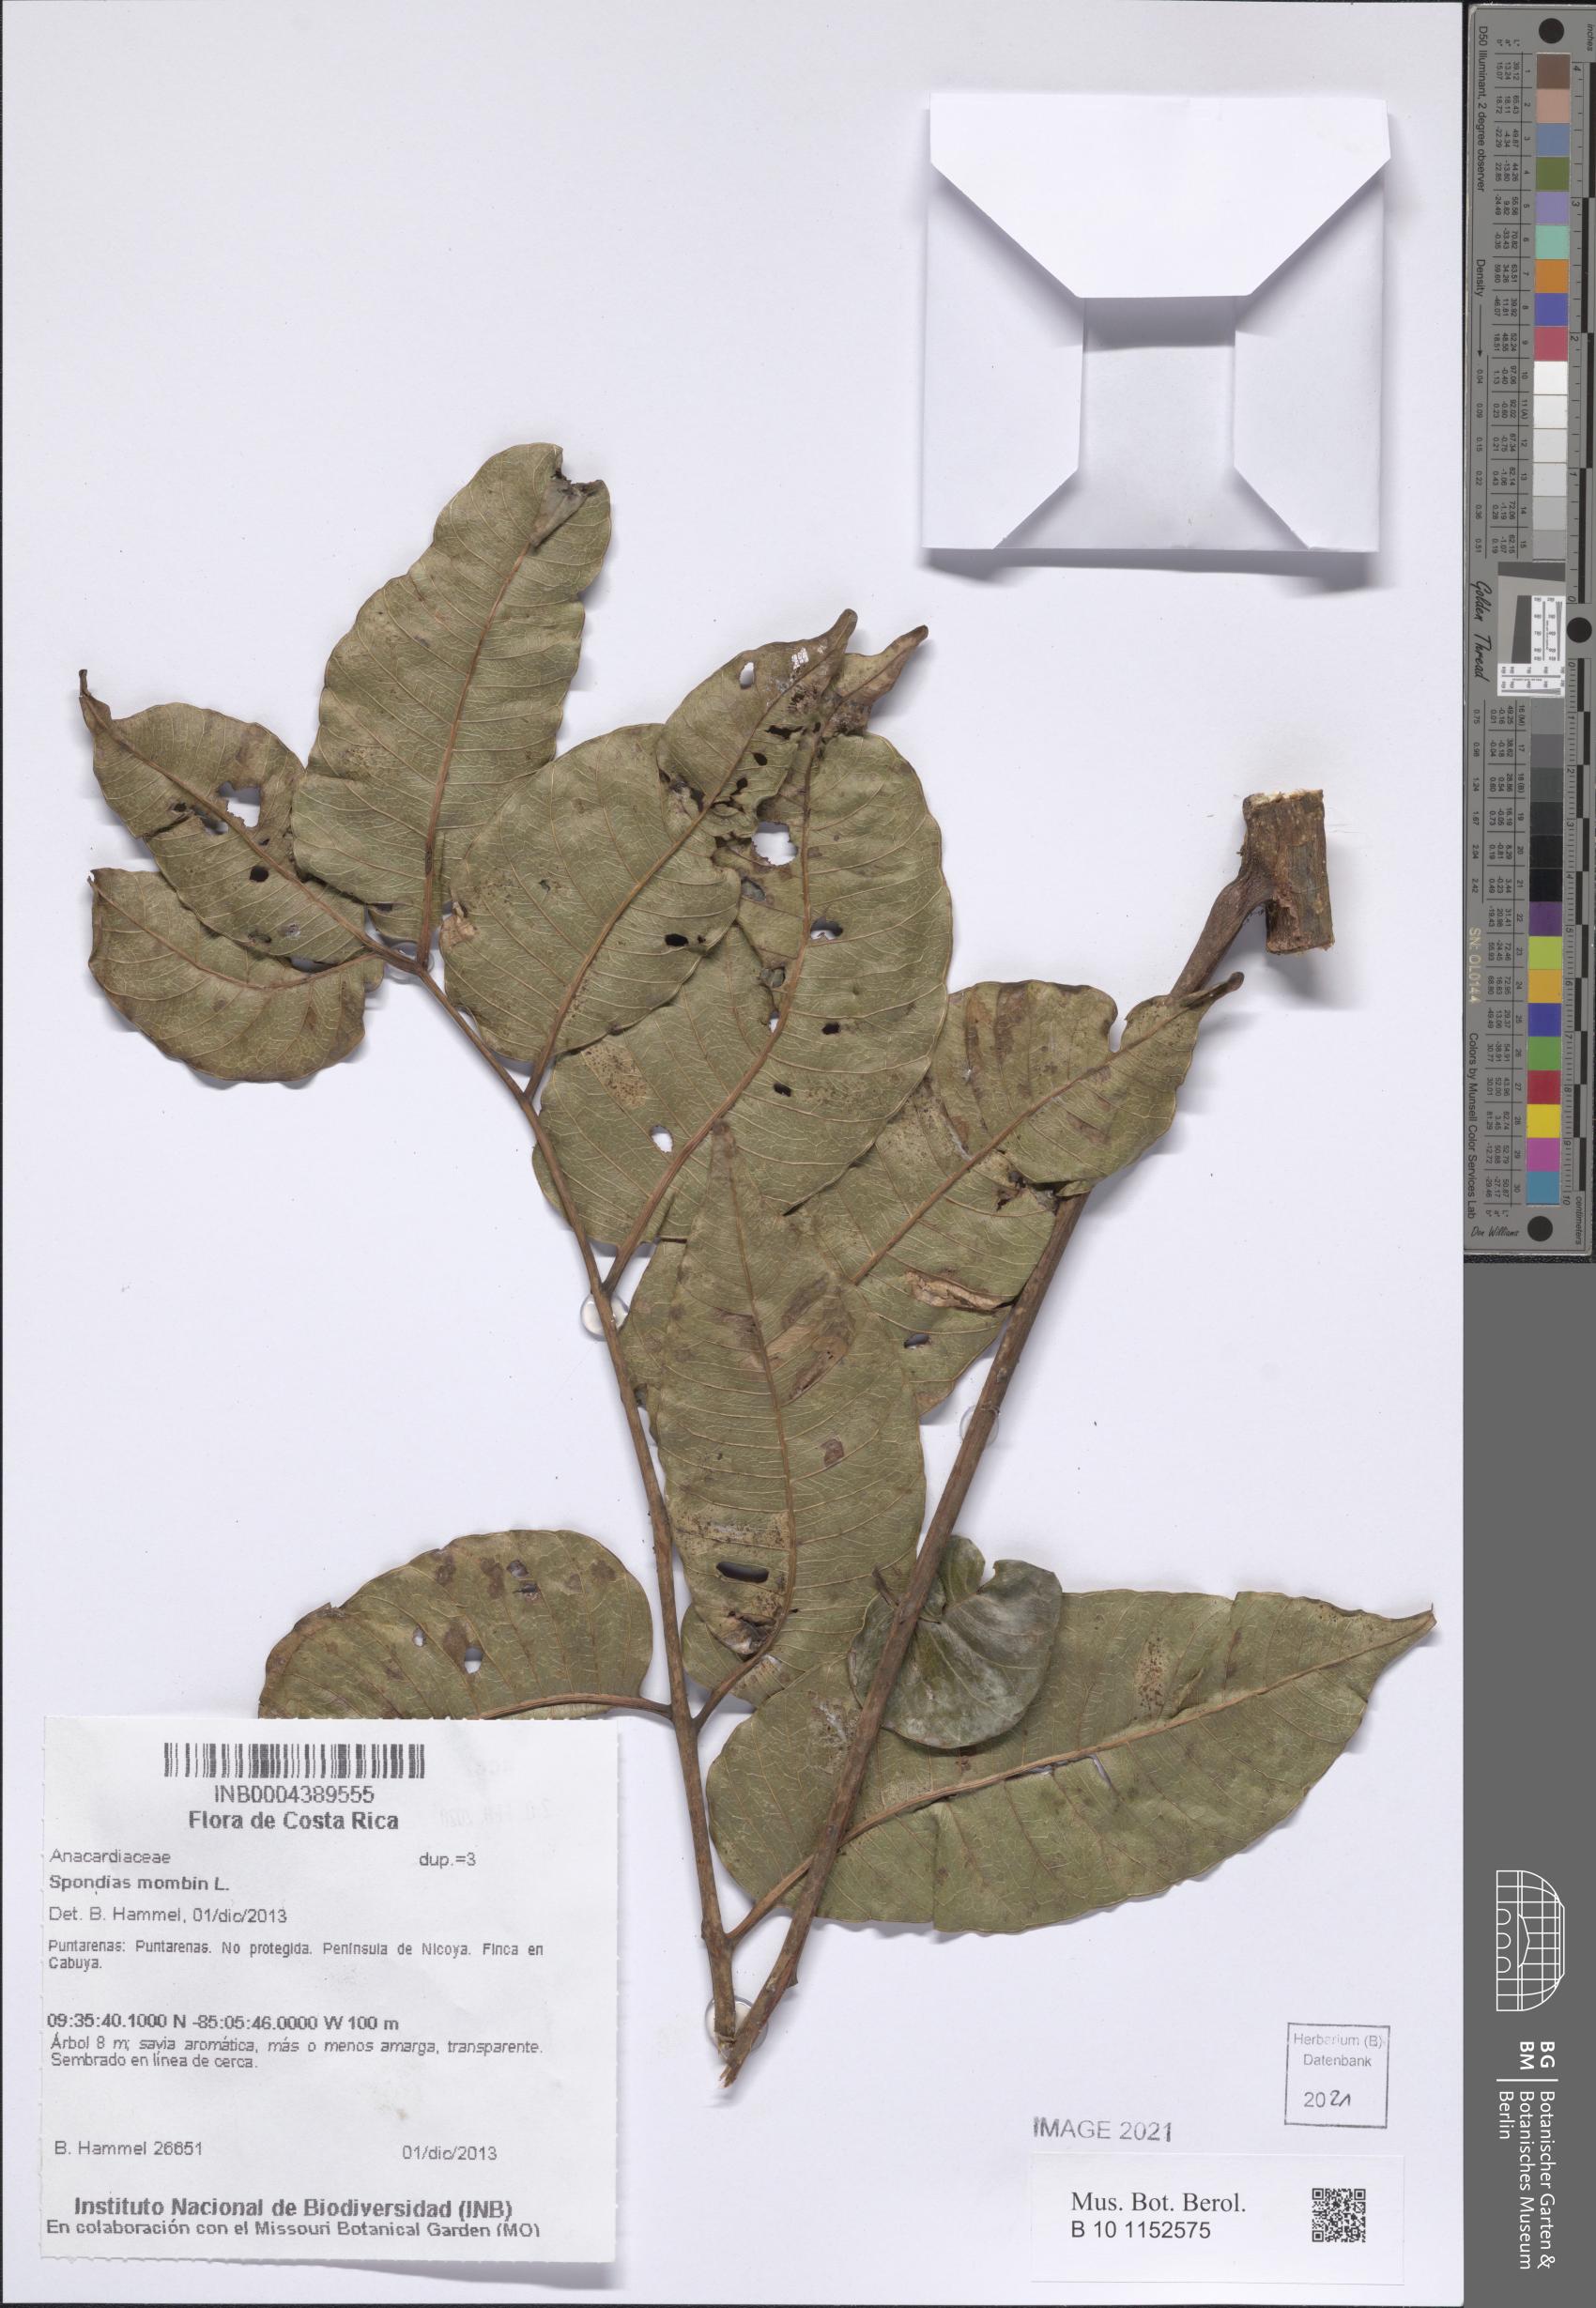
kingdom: Plantae
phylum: Tracheophyta
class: Magnoliopsida
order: Sapindales
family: Anacardiaceae
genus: Spondias
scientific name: Spondias mombin
